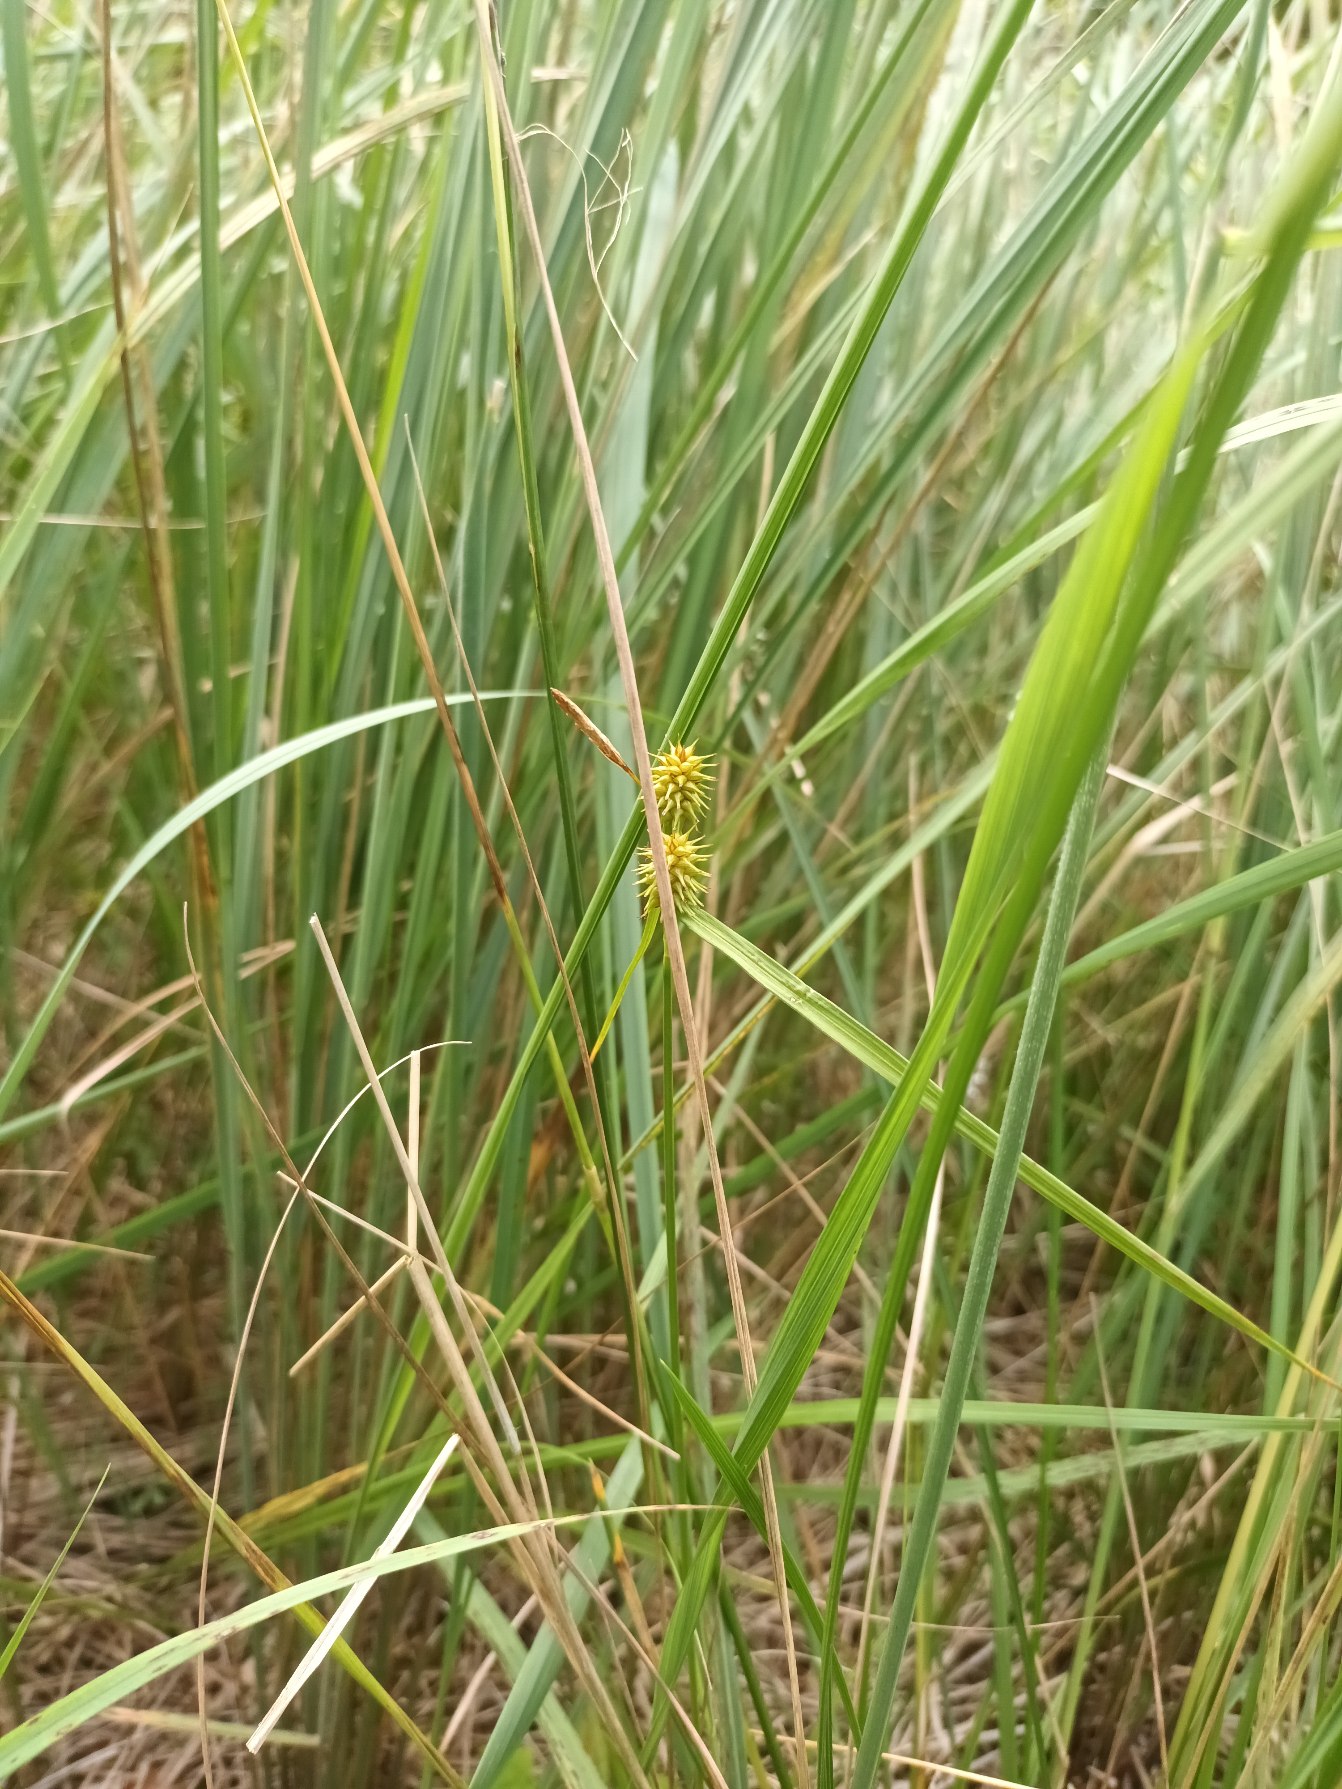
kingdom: Plantae
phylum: Tracheophyta
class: Liliopsida
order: Poales
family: Cyperaceae
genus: Carex
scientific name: Carex flava
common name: Gul star
